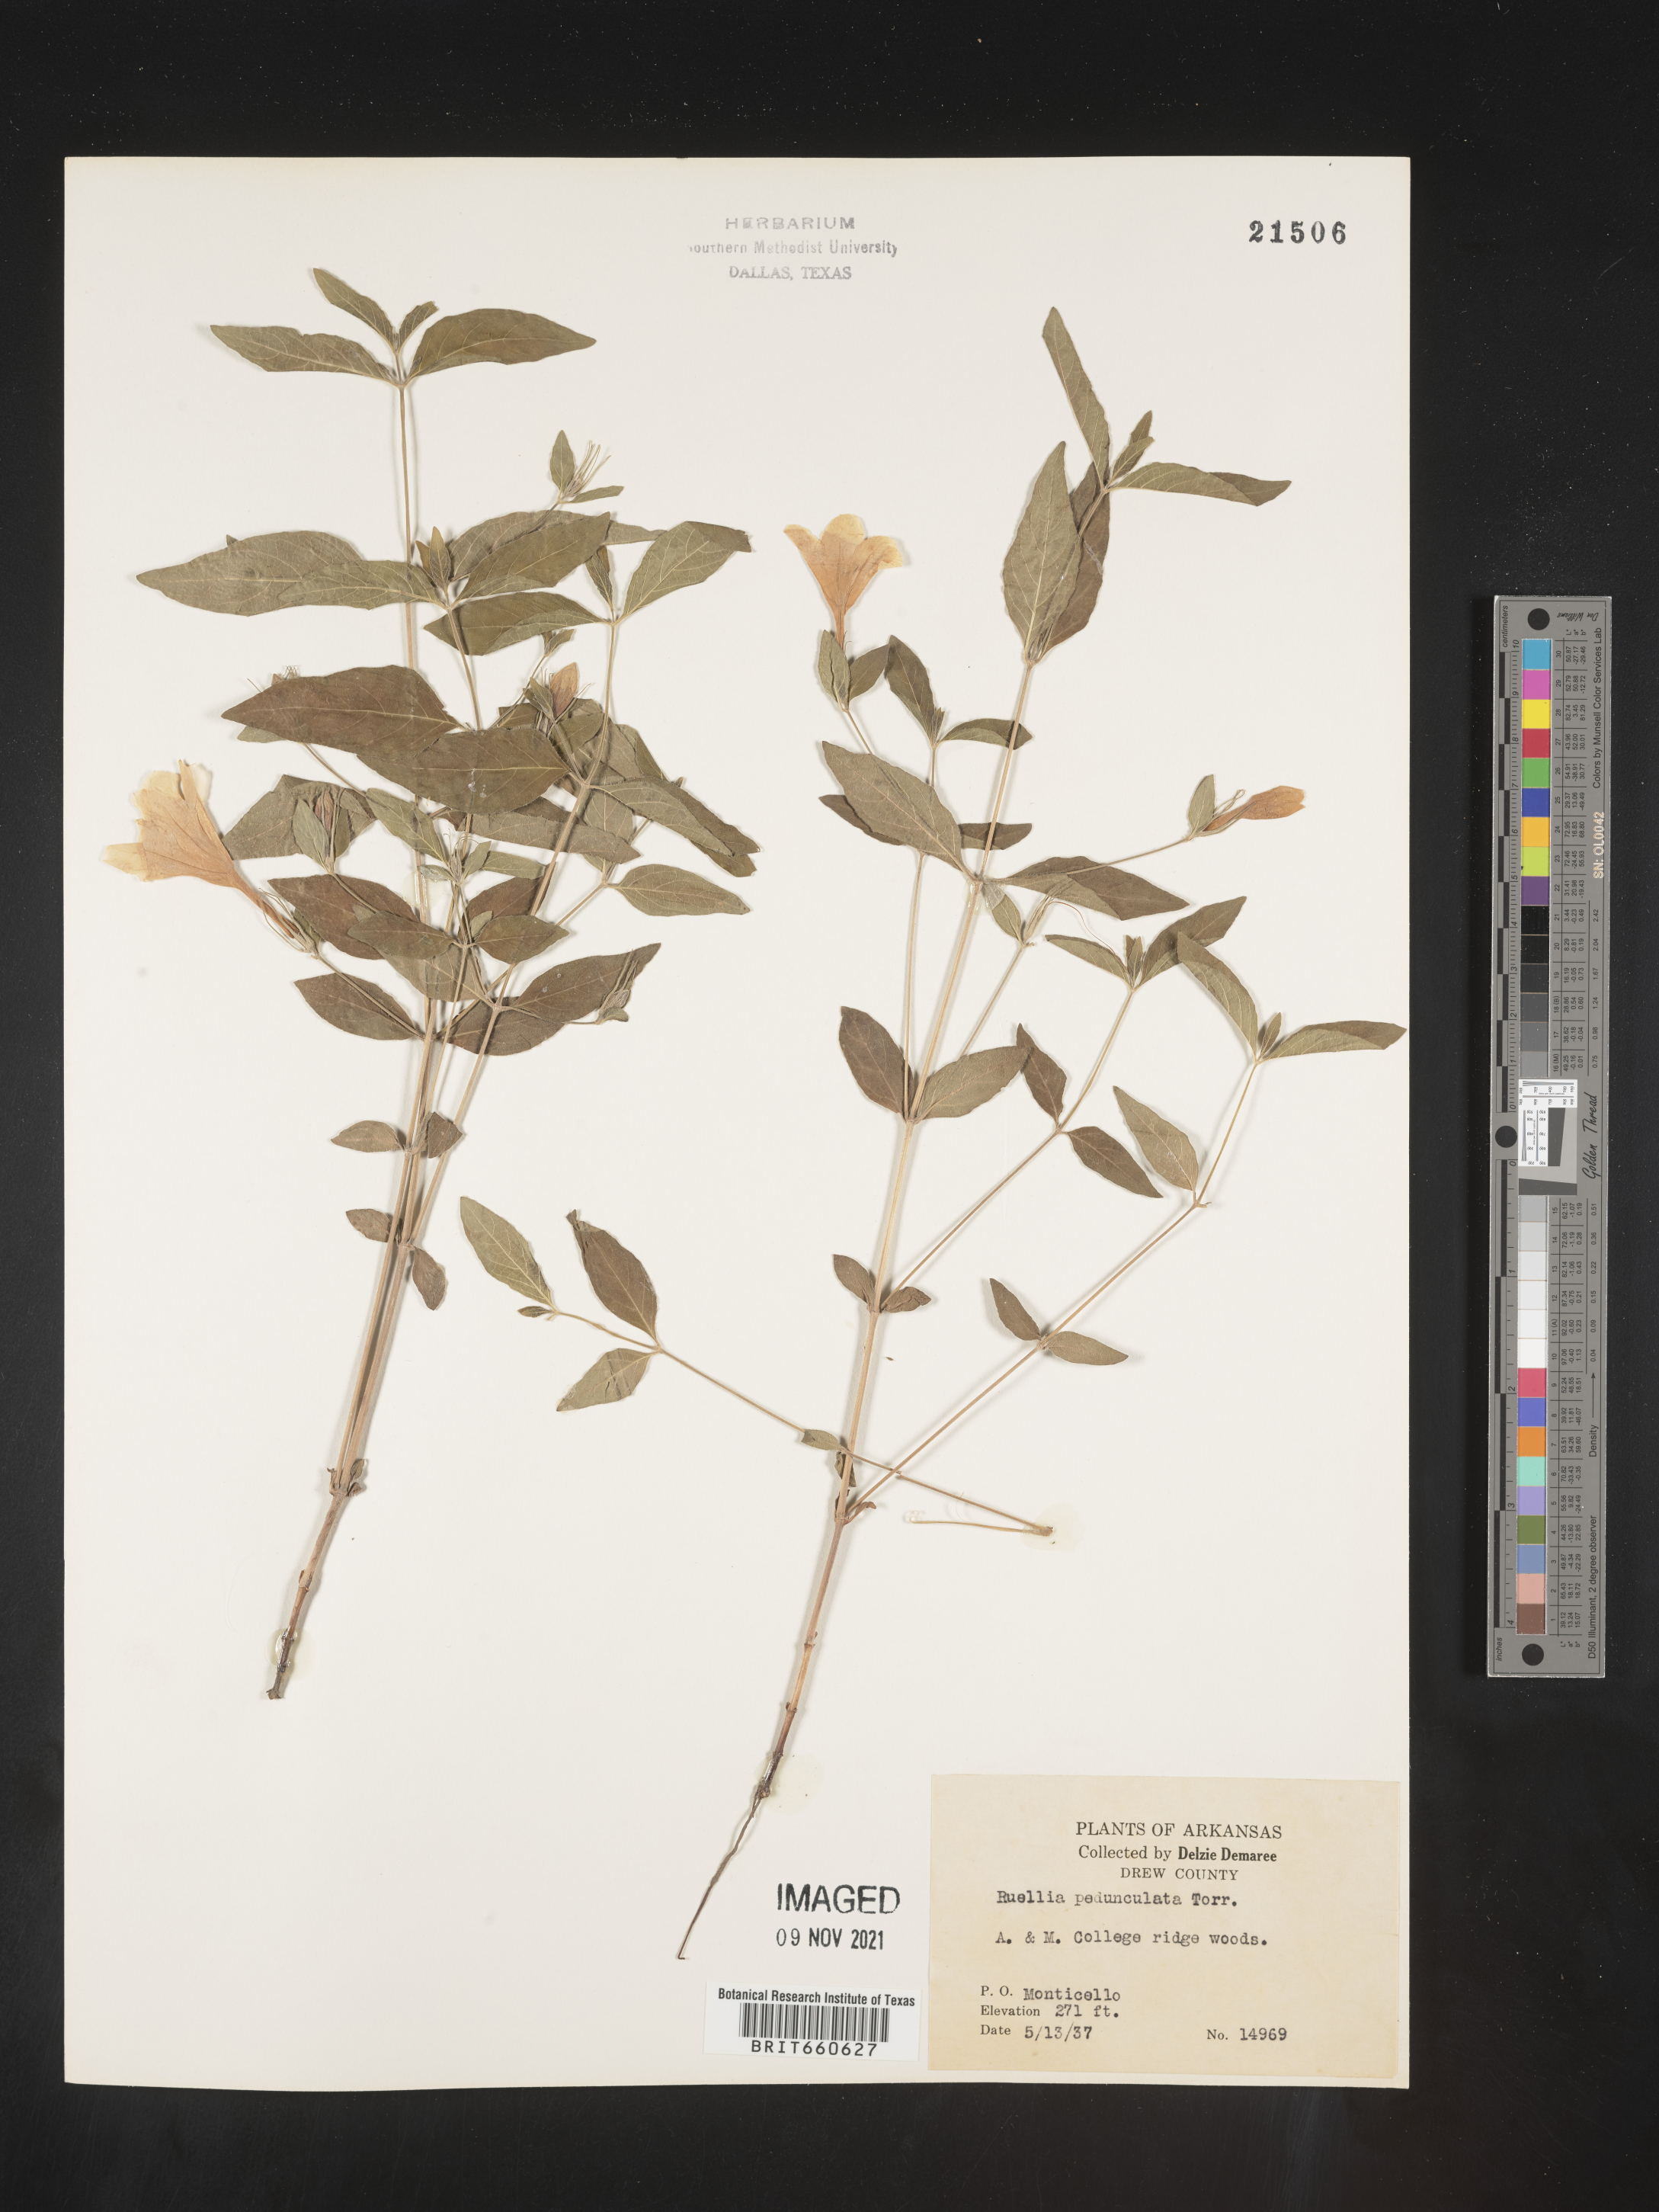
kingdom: Plantae
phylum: Tracheophyta
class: Magnoliopsida
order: Lamiales
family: Acanthaceae
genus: Ruellia
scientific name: Ruellia pedunculata
